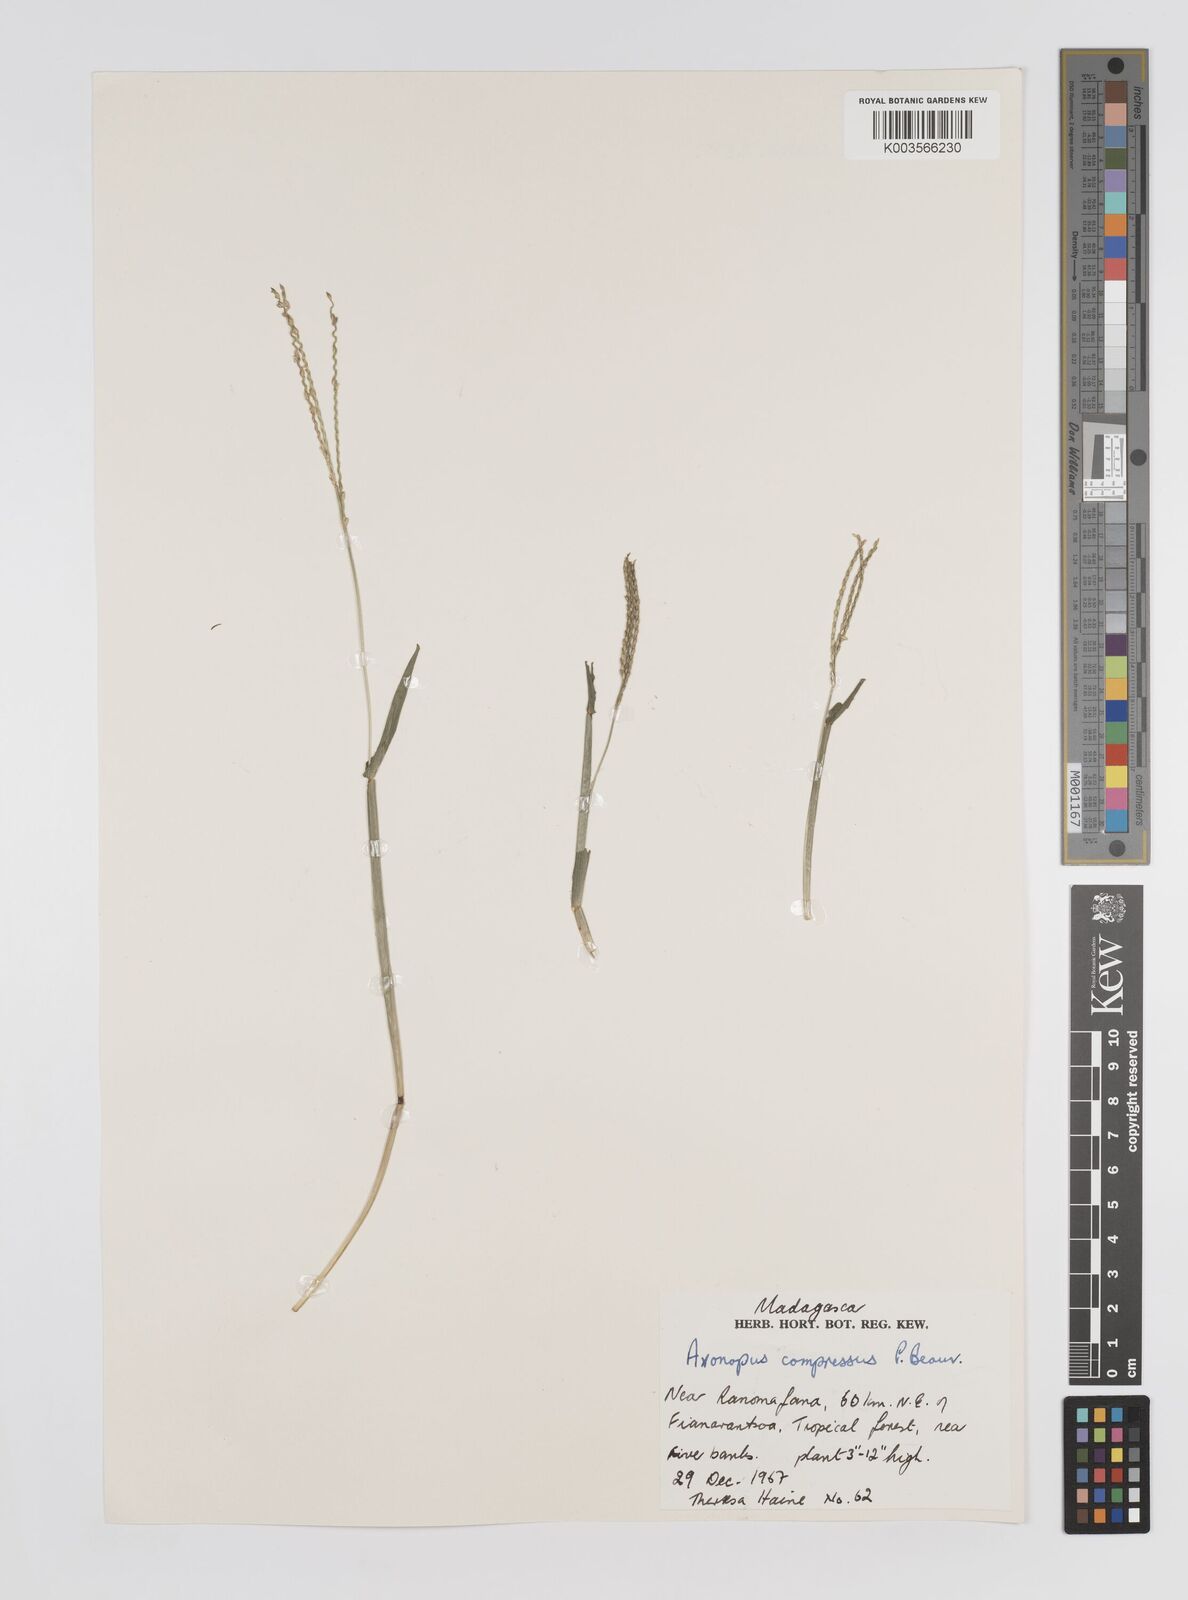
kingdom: Plantae
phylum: Tracheophyta
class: Liliopsida
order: Poales
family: Poaceae
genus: Axonopus
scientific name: Axonopus compressus
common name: American carpet grass
